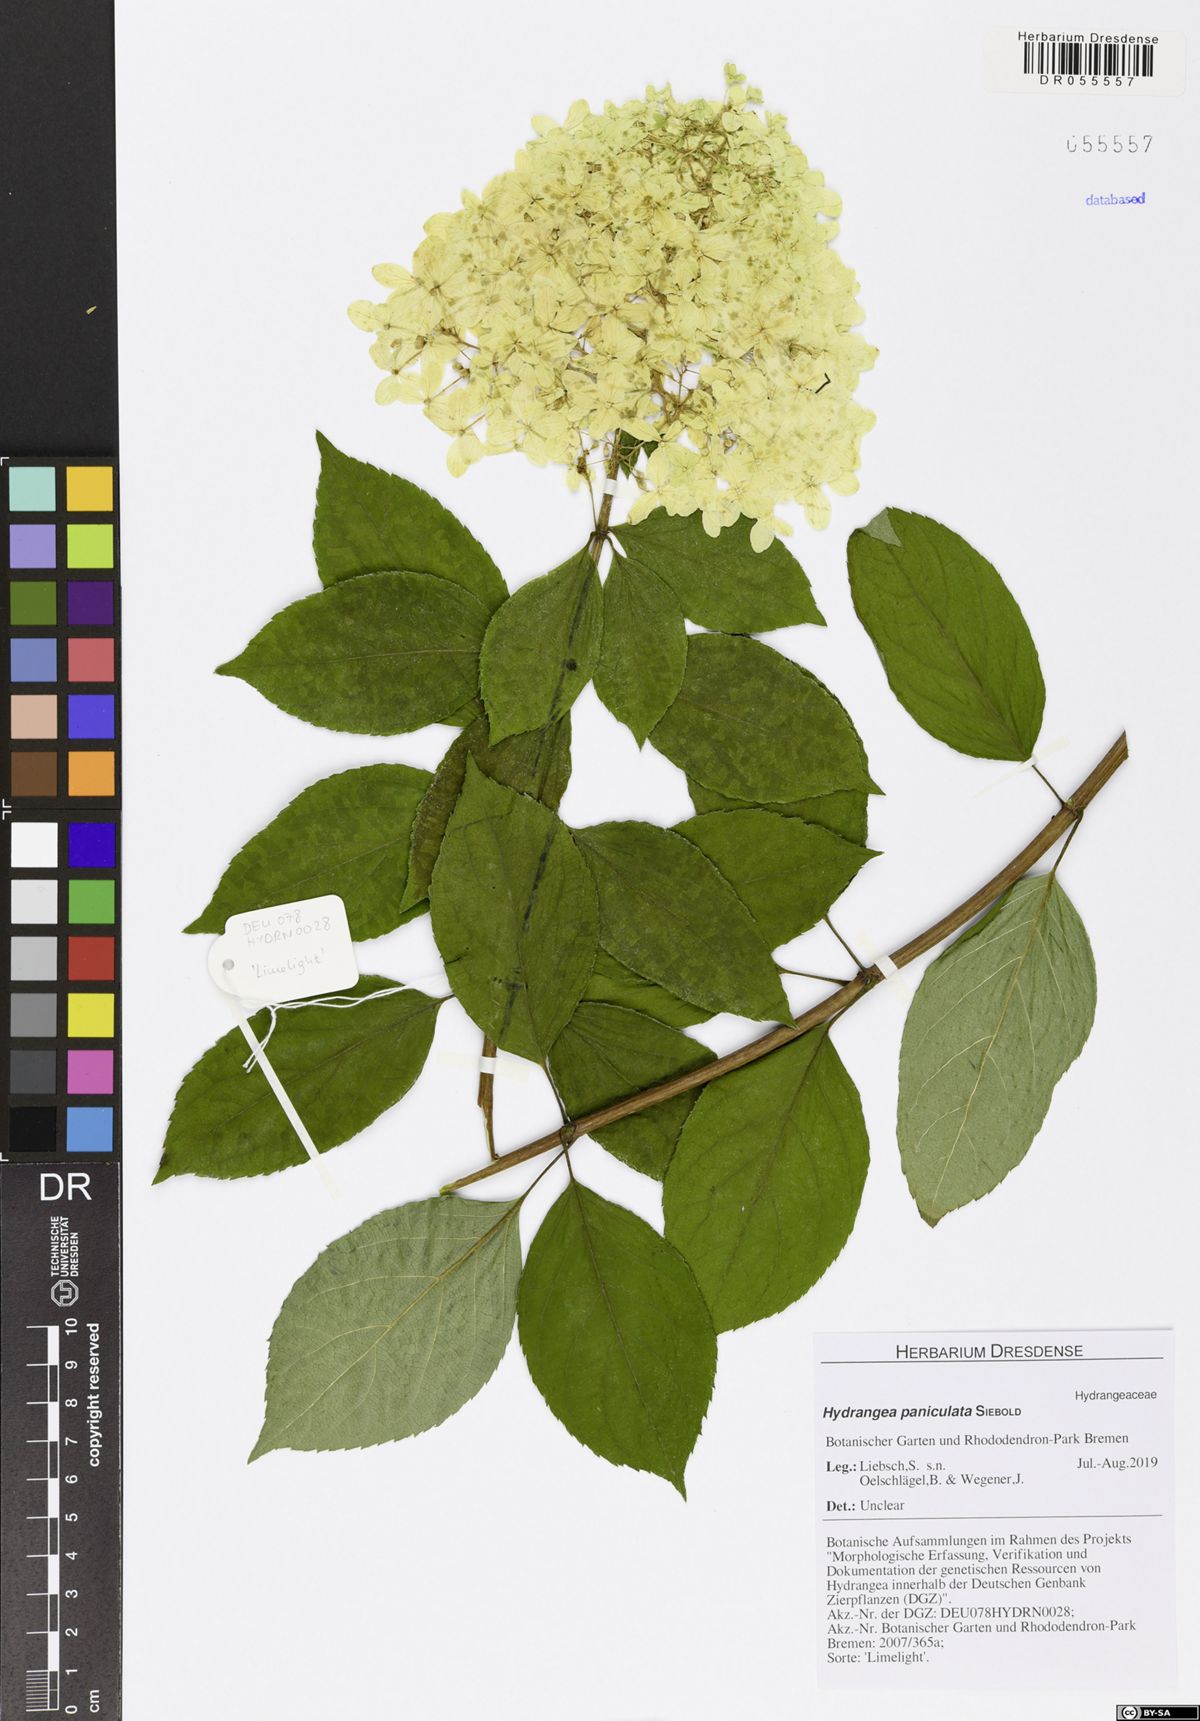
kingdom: Plantae
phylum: Tracheophyta
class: Magnoliopsida
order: Cornales
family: Hydrangeaceae
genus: Hydrangea
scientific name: Hydrangea paniculata
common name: Panicled hydrangea
